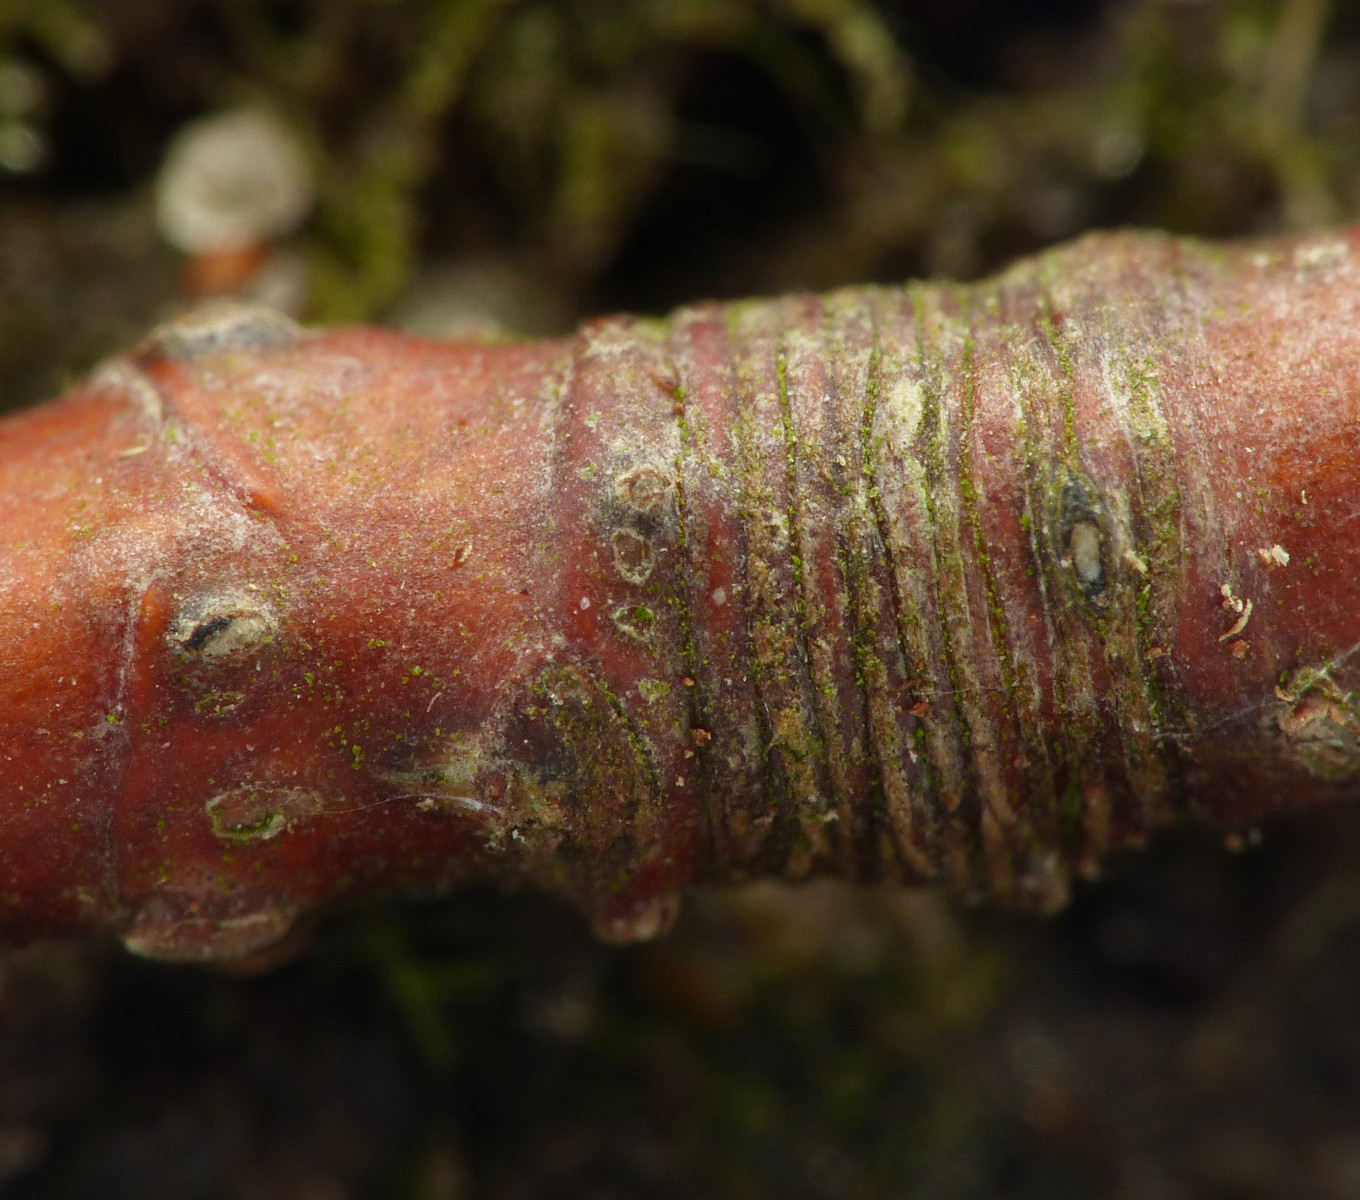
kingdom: Fungi
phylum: Ascomycota
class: Sordariomycetes
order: Diaporthales
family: Diaporthaceae
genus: Diaporthe
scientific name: Diaporthe rudis
